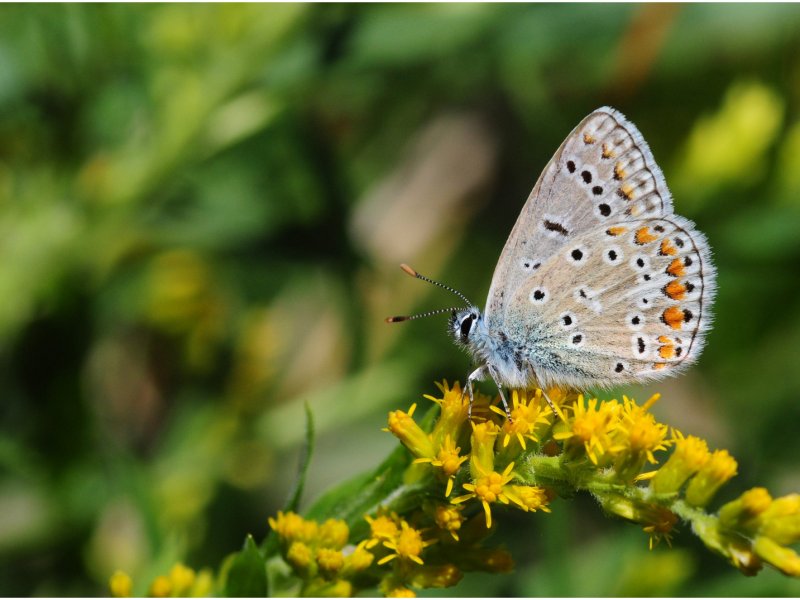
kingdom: Animalia
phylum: Arthropoda
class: Insecta
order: Lepidoptera
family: Lycaenidae
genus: Polyommatus
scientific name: Polyommatus icarus
